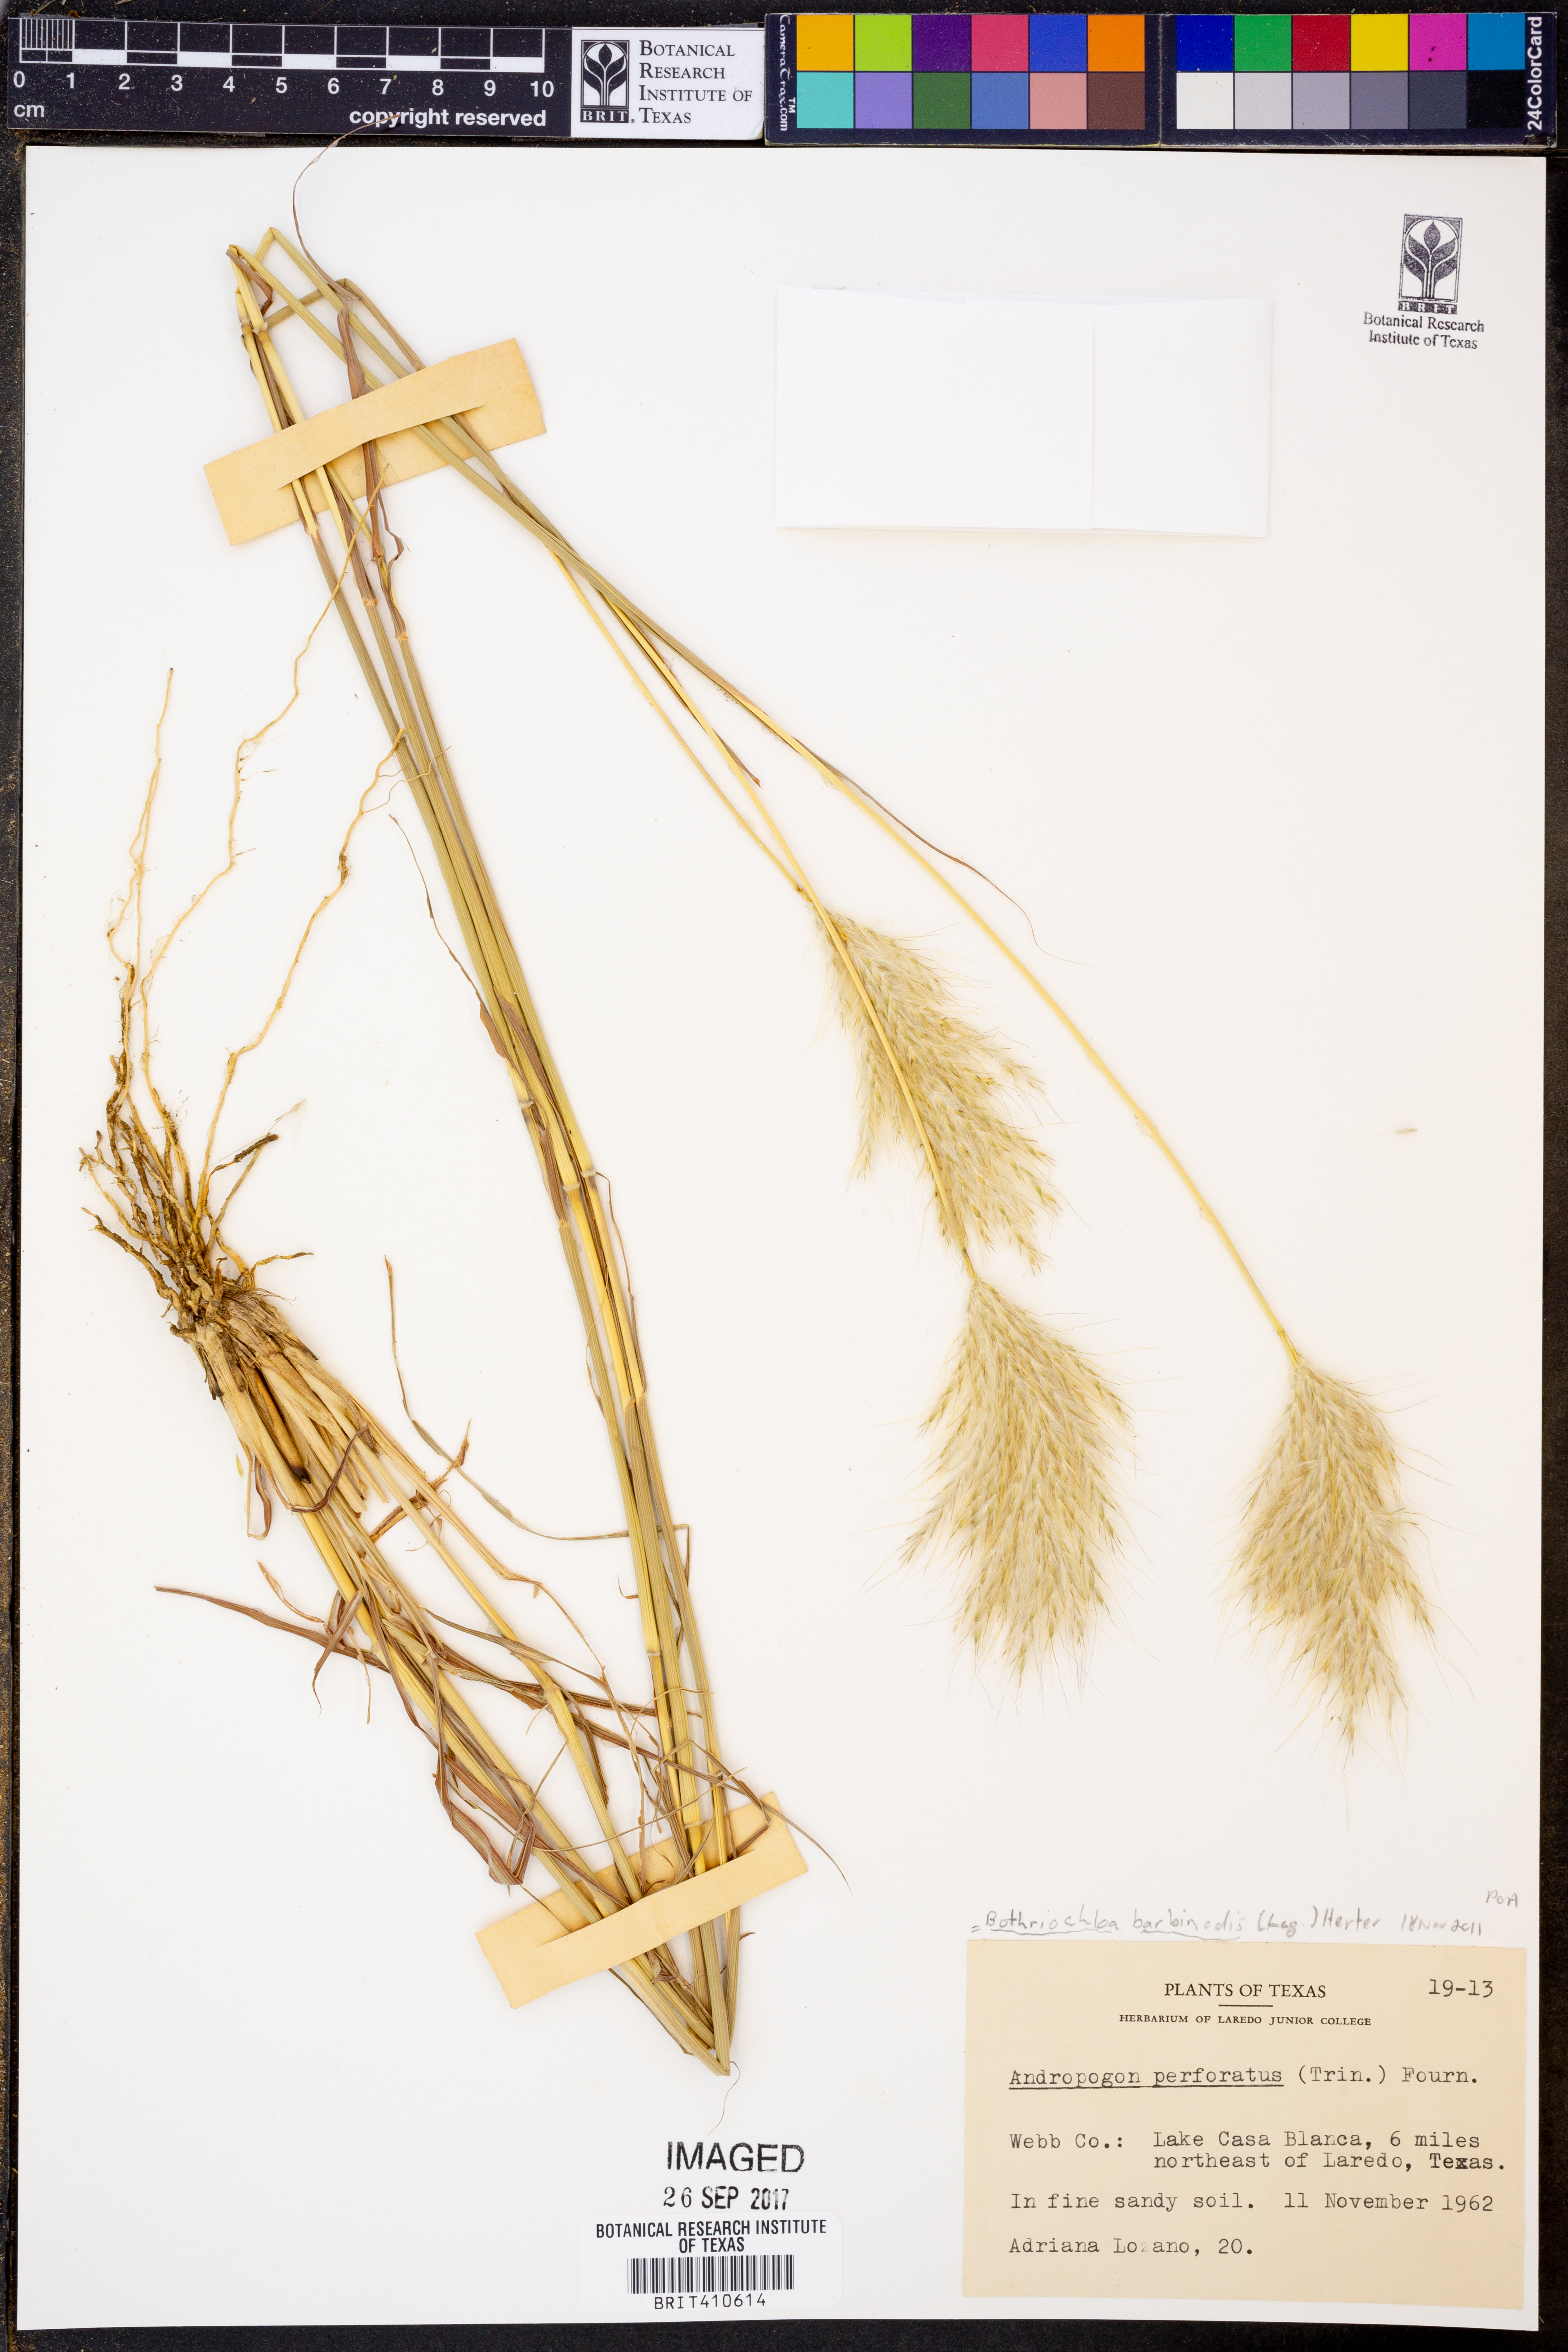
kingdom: Plantae
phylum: Tracheophyta
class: Liliopsida
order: Poales
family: Poaceae
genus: Bothriochloa
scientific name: Bothriochloa barbinodis
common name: Cane bluestem
